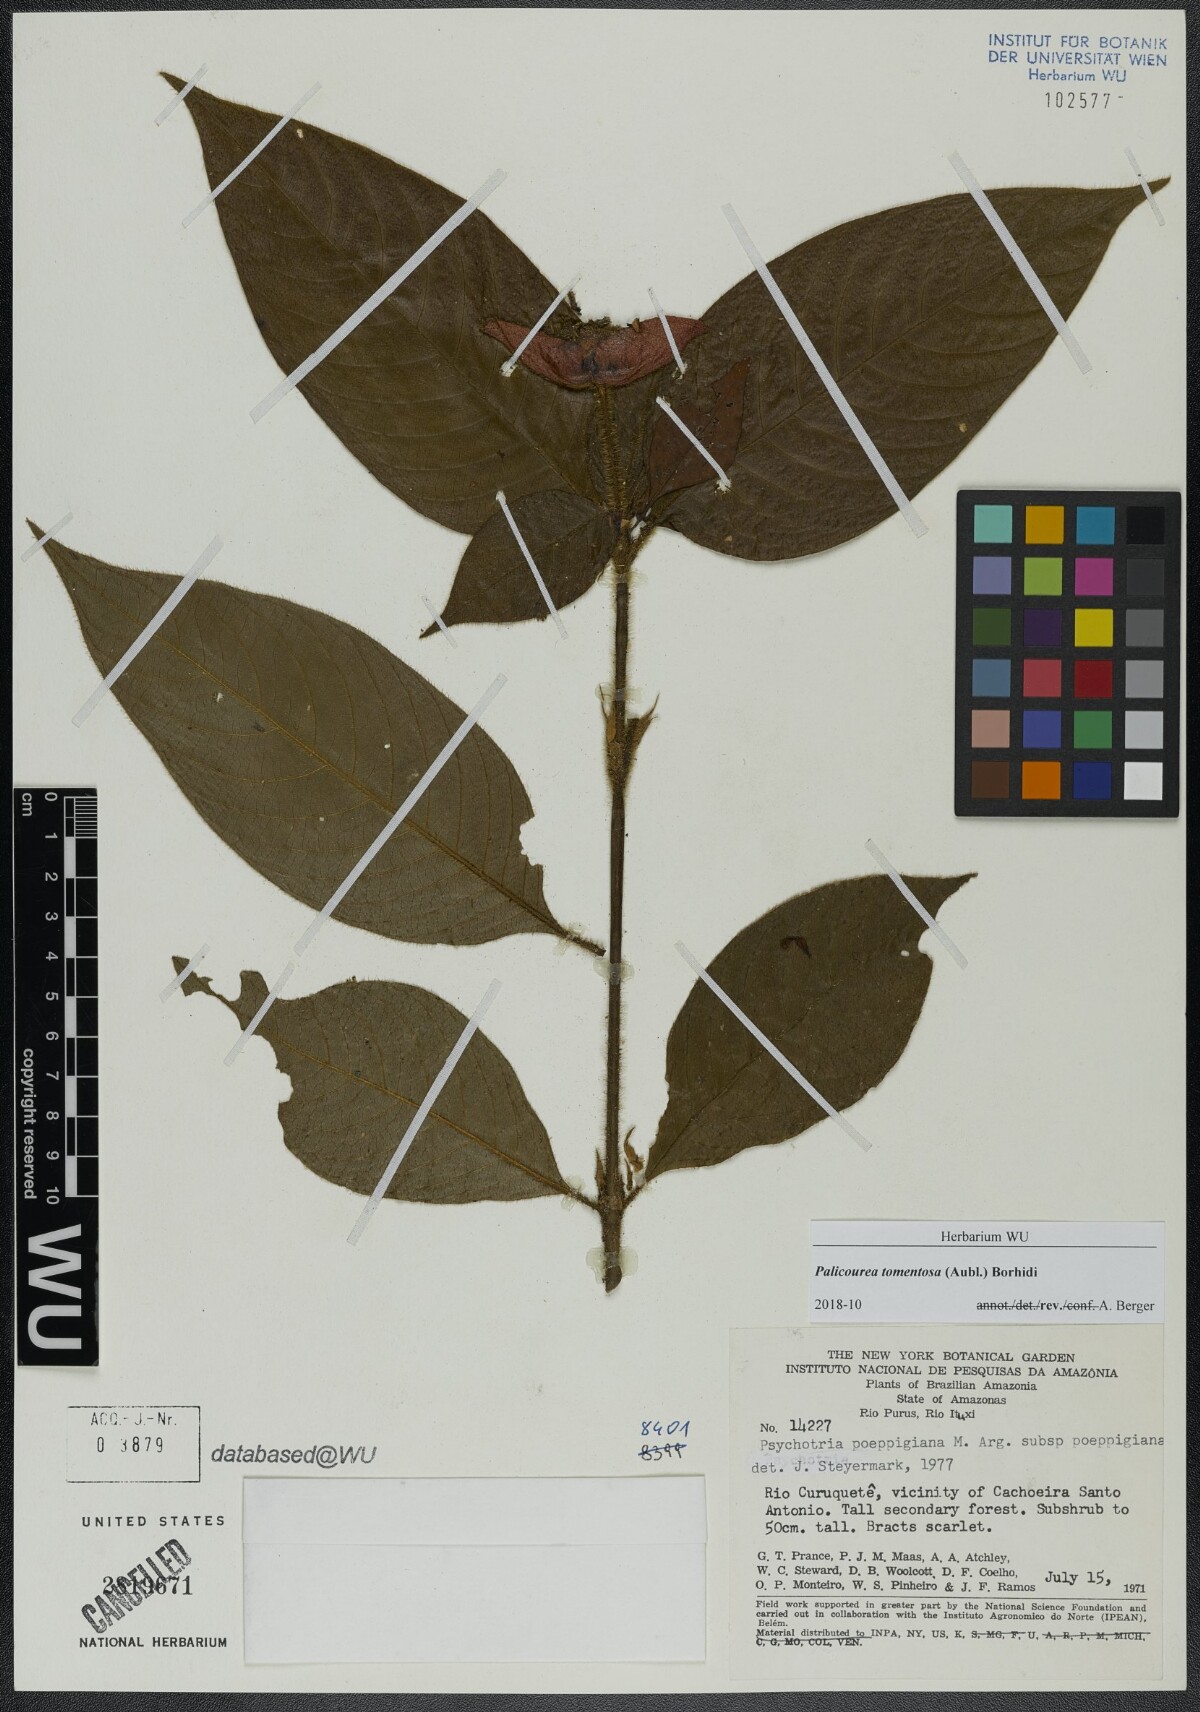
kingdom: Plantae
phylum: Tracheophyta
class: Magnoliopsida
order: Gentianales
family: Rubiaceae
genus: Palicourea
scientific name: Palicourea tomentosa
